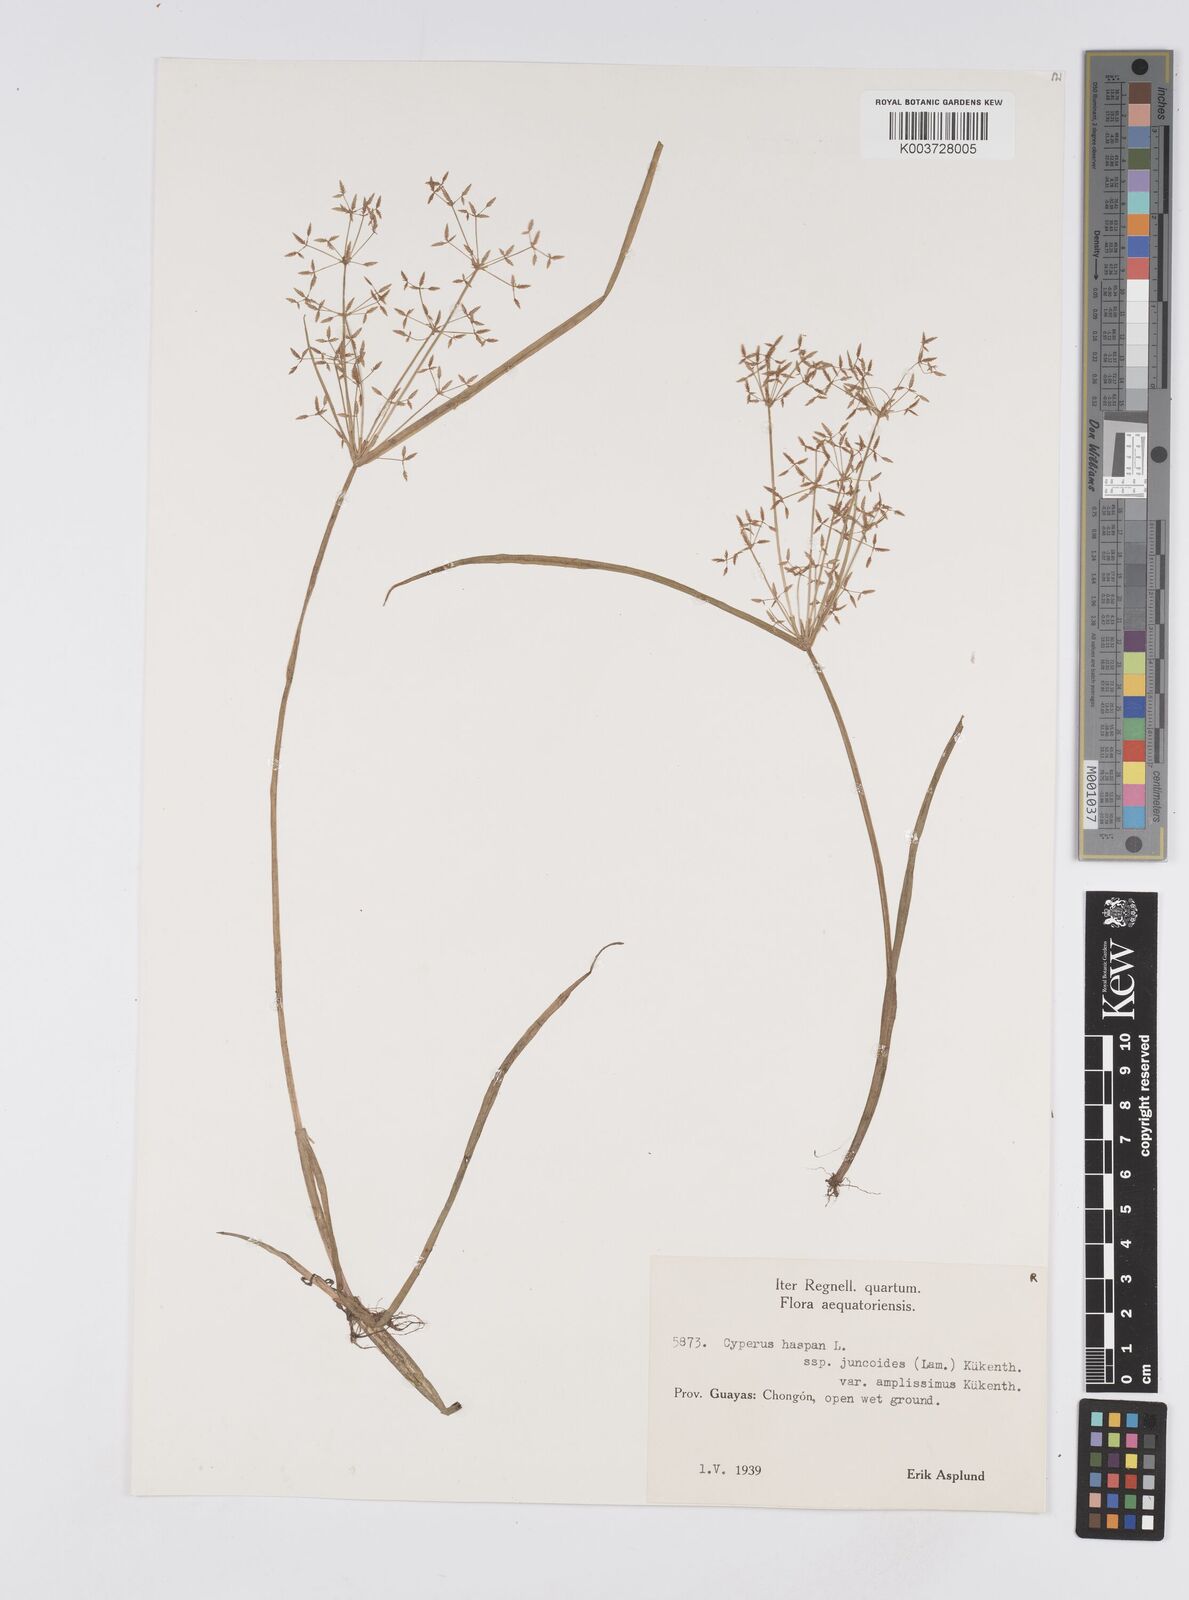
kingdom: Plantae
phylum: Tracheophyta
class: Liliopsida
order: Poales
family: Cyperaceae
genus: Cyperus
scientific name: Cyperus haspan
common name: Haspan flatsedge
